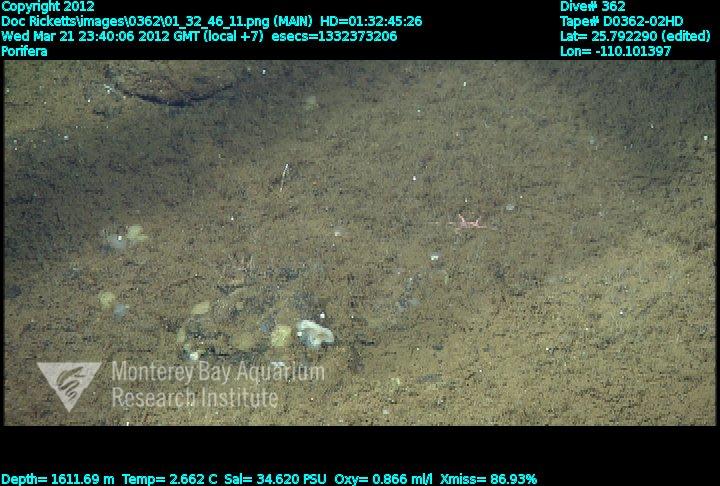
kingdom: Animalia
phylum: Porifera
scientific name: Porifera
